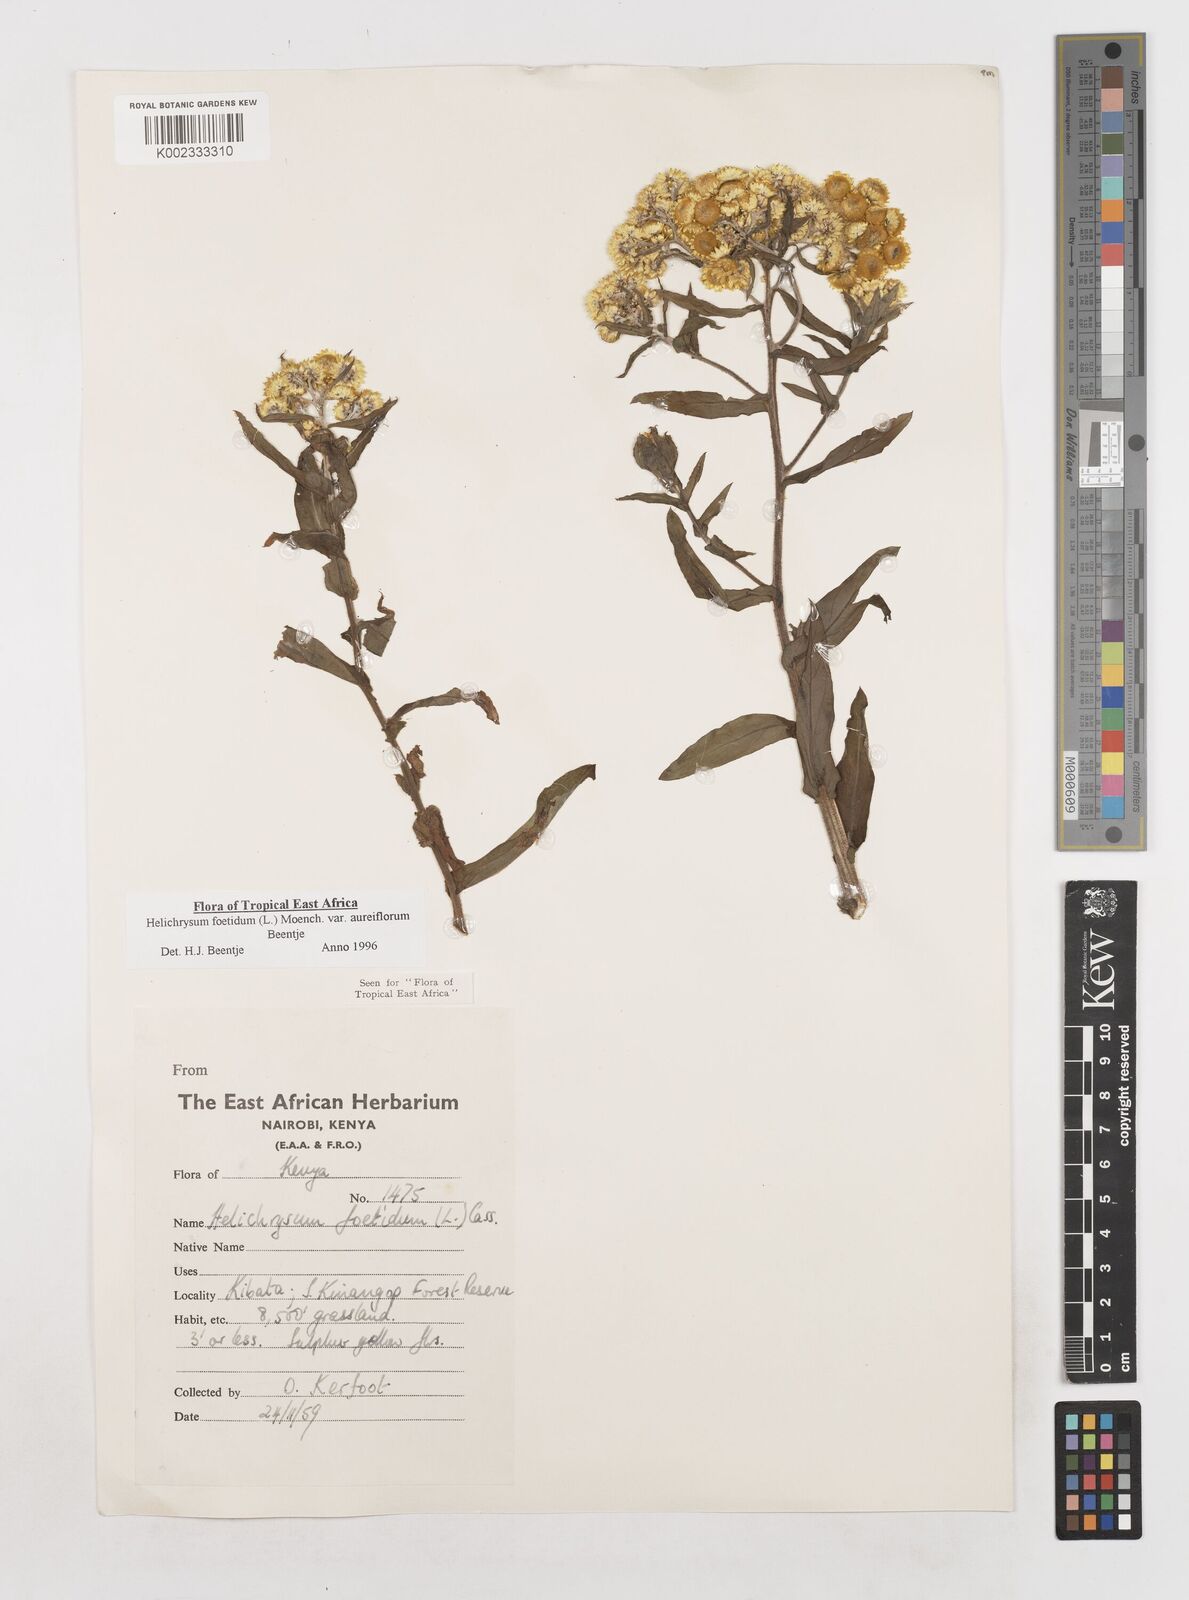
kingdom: Plantae
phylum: Tracheophyta
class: Magnoliopsida
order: Asterales
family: Asteraceae
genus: Helichrysum
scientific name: Helichrysum foetidum
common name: Stinking everlasting
